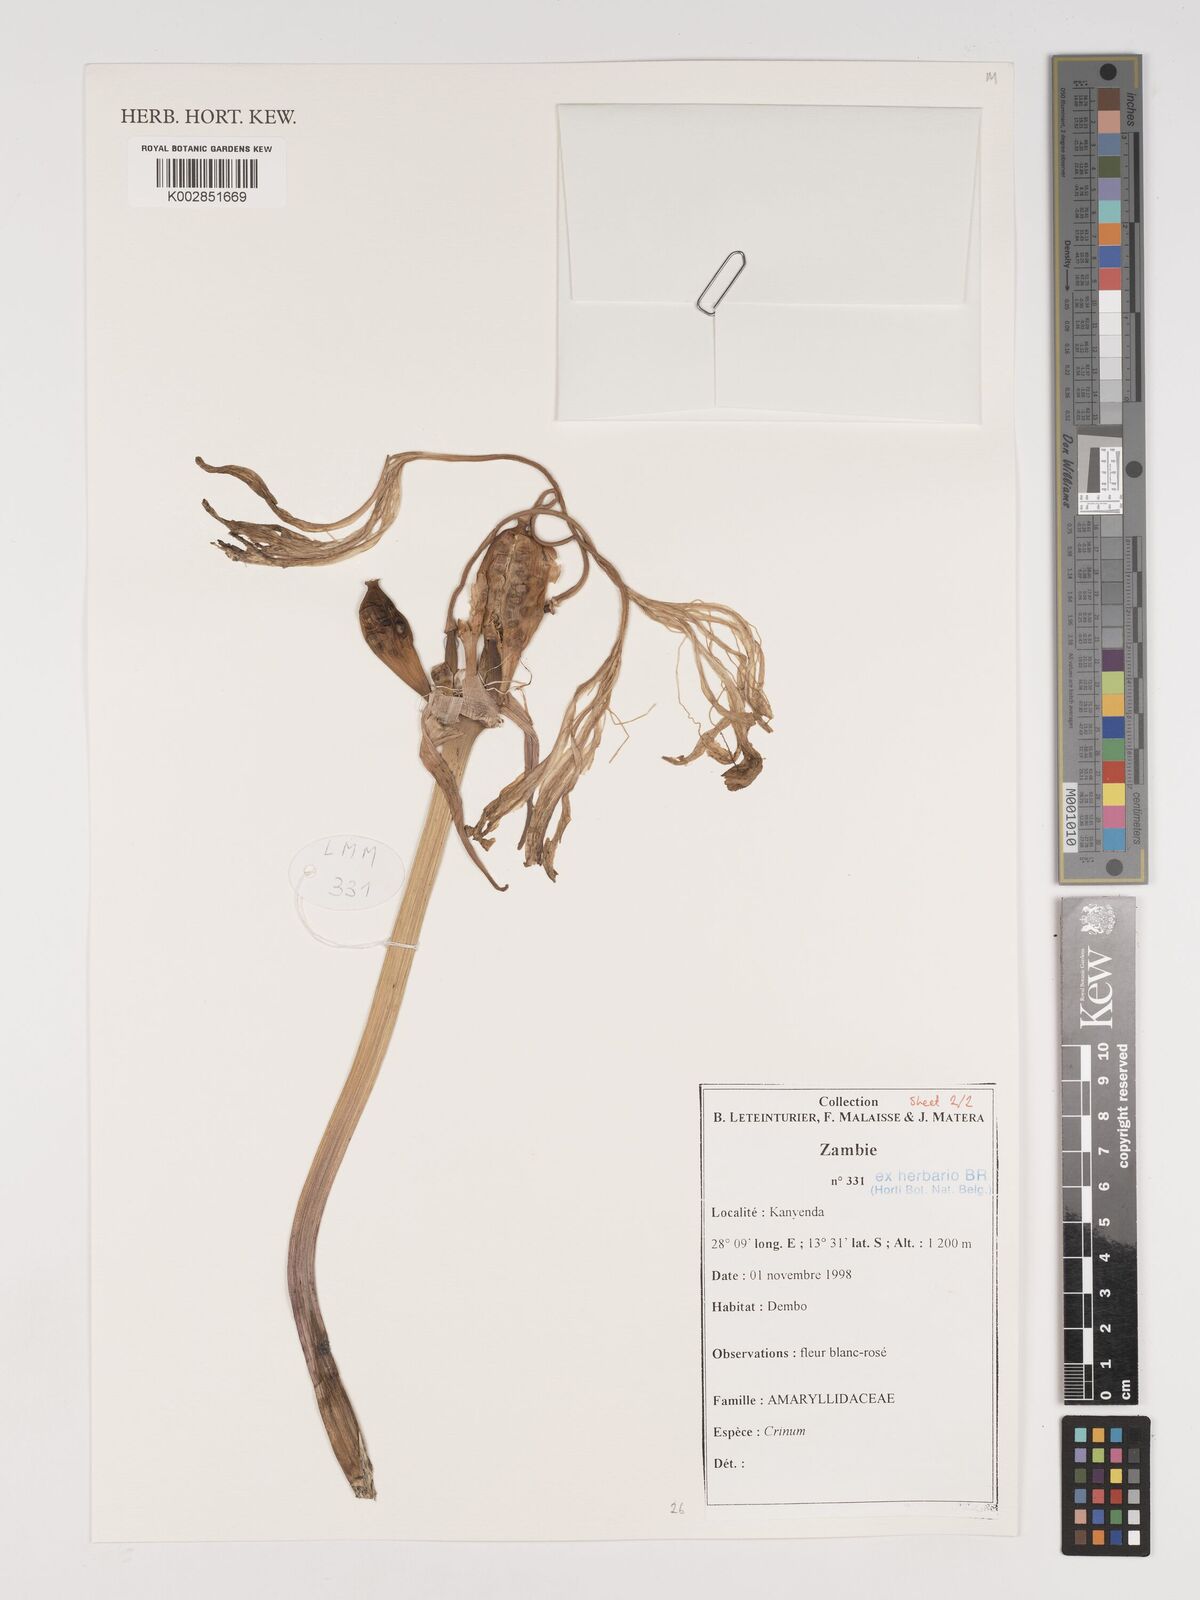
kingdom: Plantae
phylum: Tracheophyta
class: Liliopsida
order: Asparagales
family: Amaryllidaceae
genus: Crinum
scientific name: Crinum
